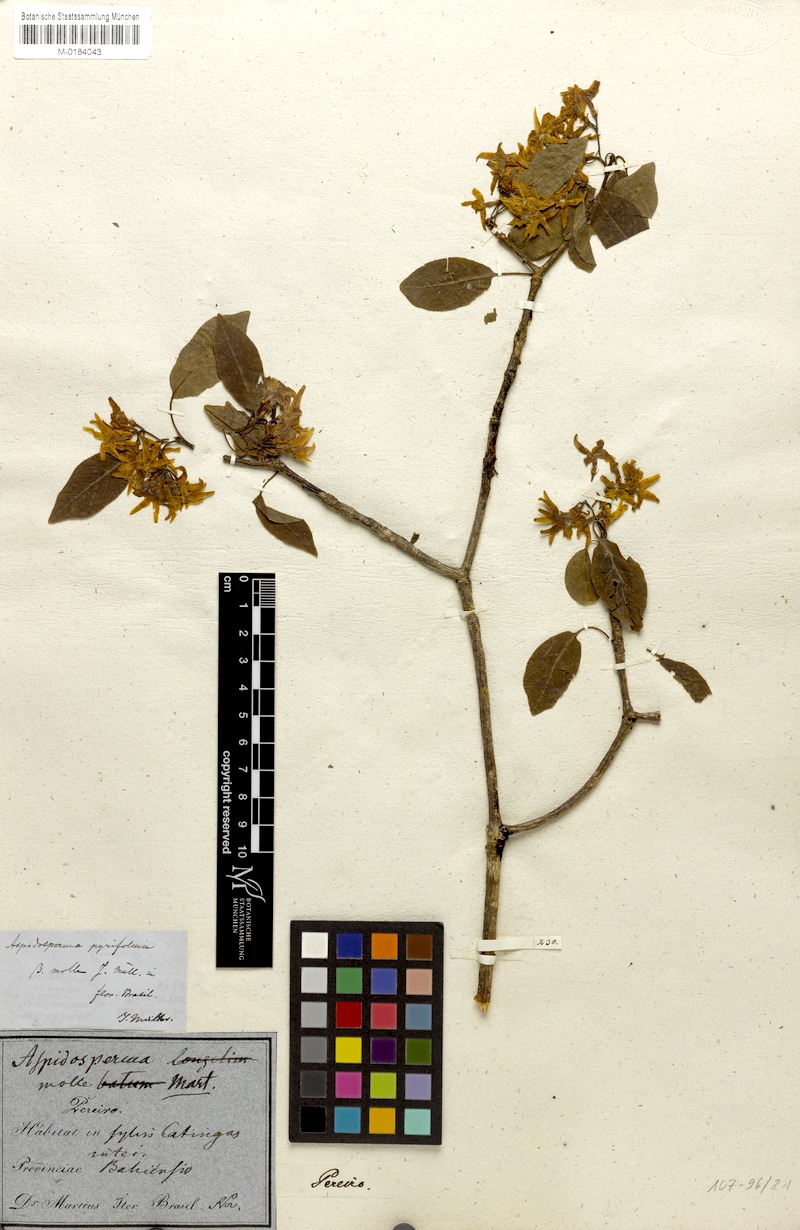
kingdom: Plantae
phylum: Tracheophyta
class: Magnoliopsida
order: Gentianales
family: Apocynaceae
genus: Aspidosperma
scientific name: Aspidosperma pyrifolium
